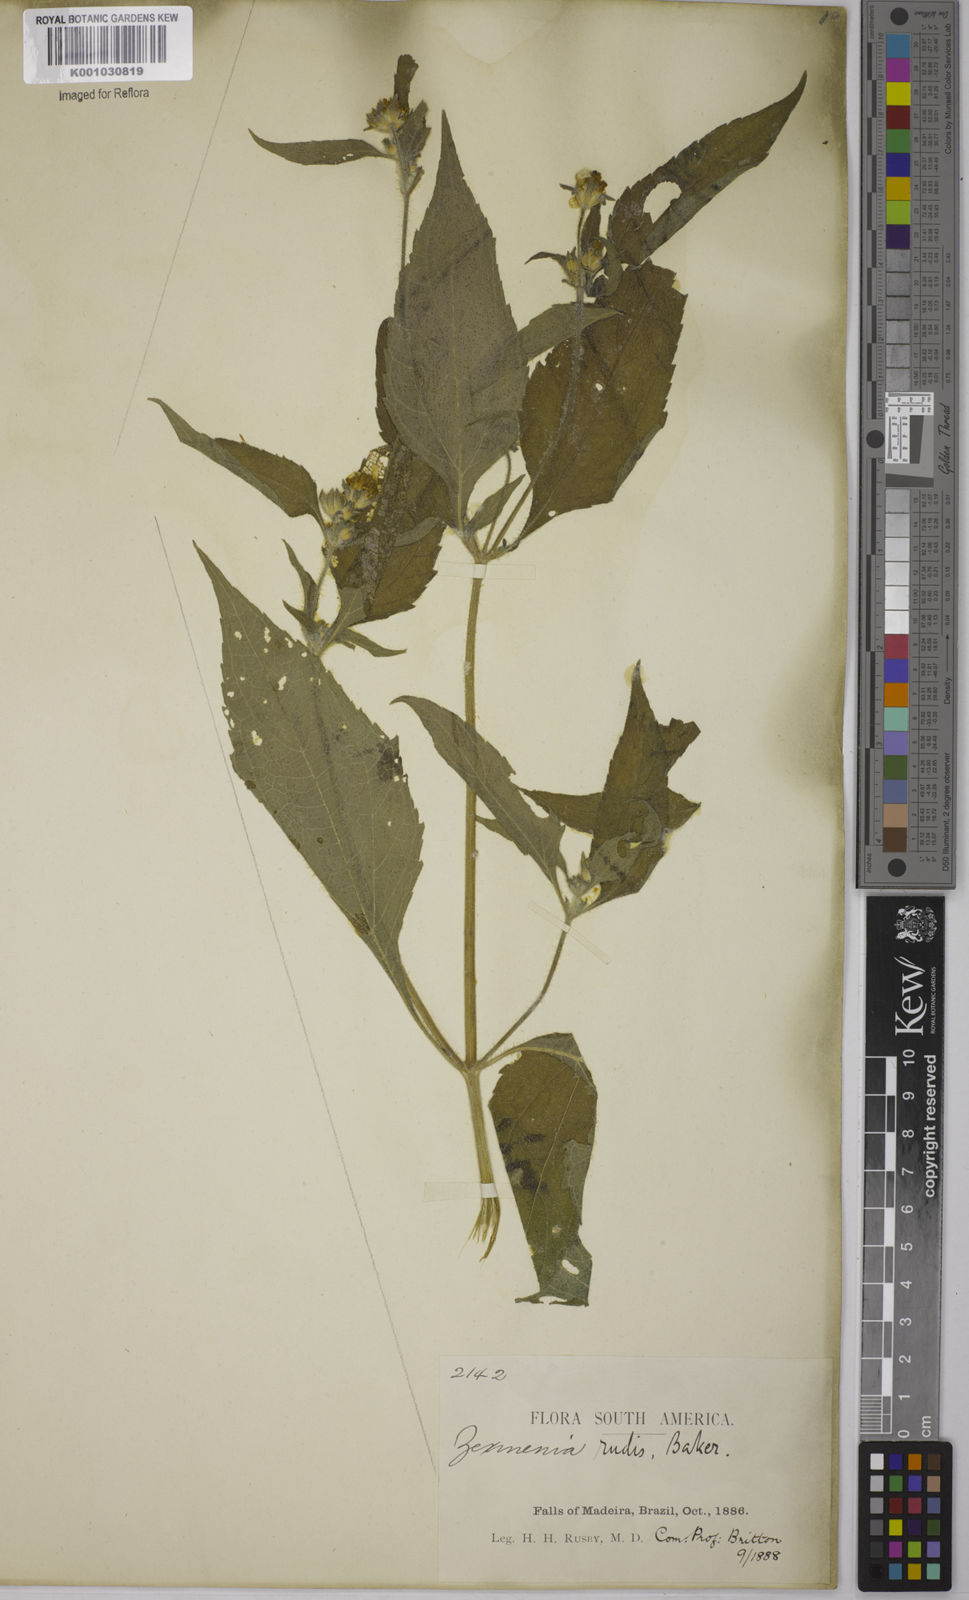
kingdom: Plantae
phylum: Tracheophyta
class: Magnoliopsida
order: Asterales
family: Asteraceae
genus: Wedelia
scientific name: Wedelia rudis
